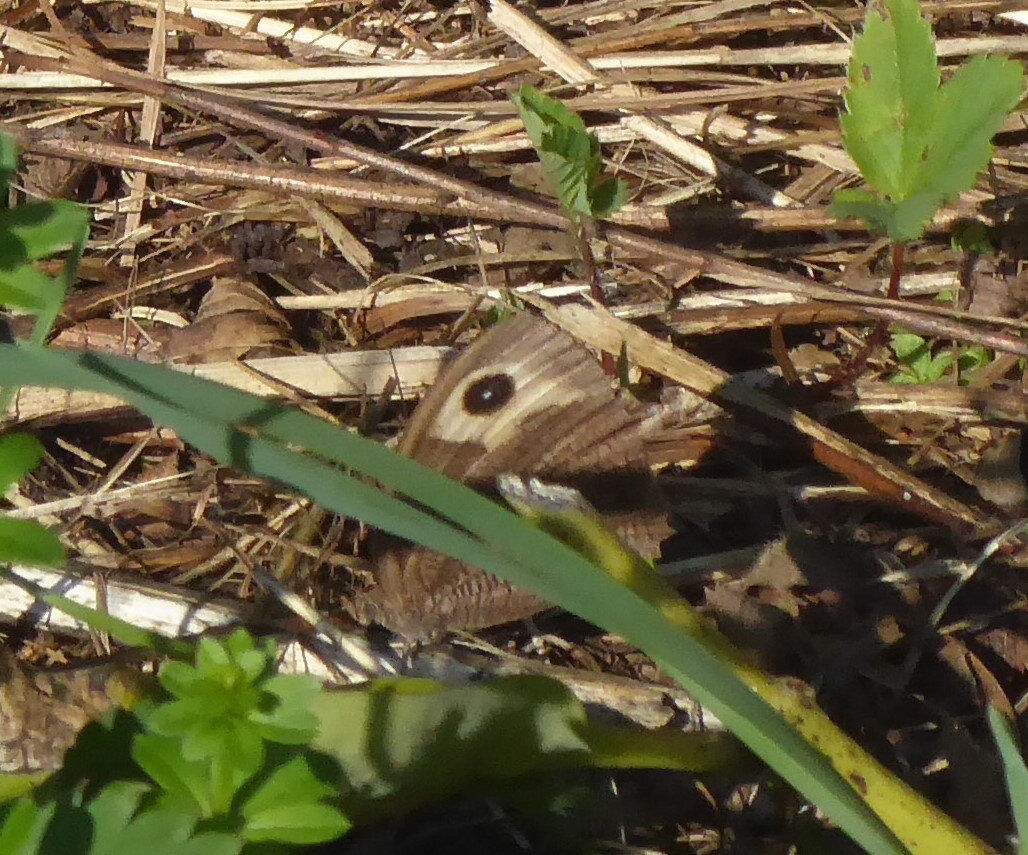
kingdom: Animalia
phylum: Arthropoda
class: Insecta
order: Lepidoptera
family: Nymphalidae
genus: Cercyonis
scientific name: Cercyonis pegala
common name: Common Wood-Nymph
